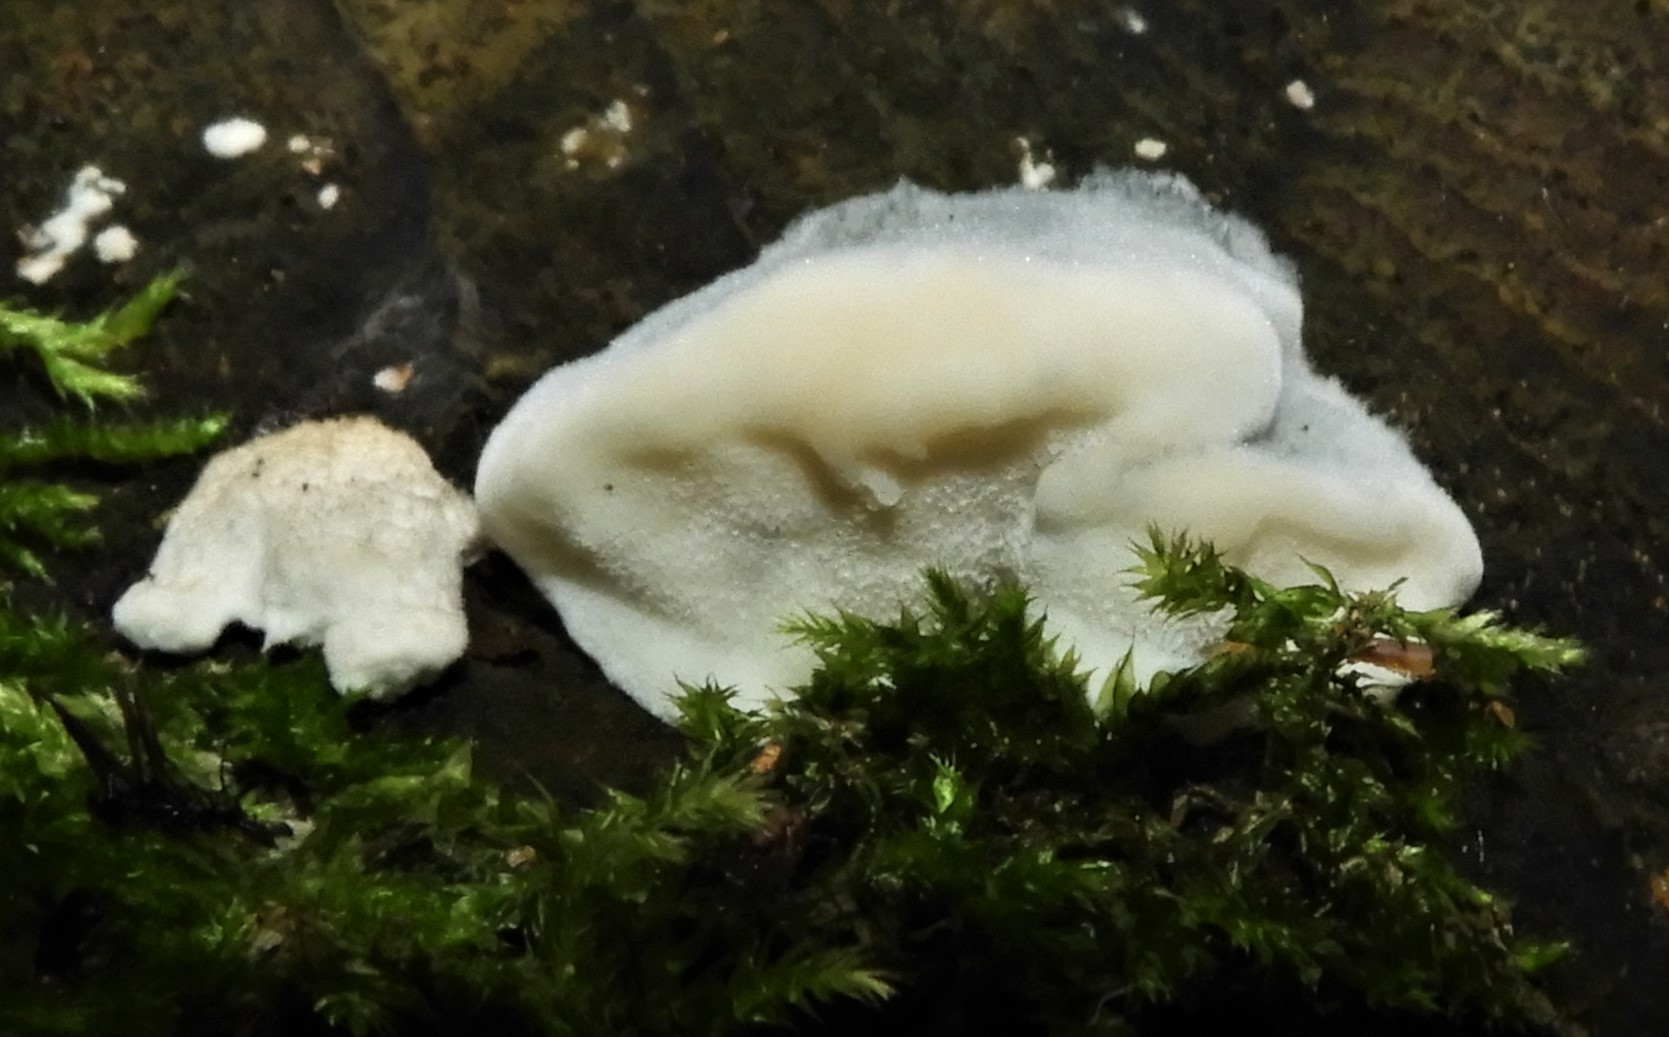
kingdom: Fungi
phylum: Basidiomycota
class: Agaricomycetes
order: Polyporales
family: Polyporaceae
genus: Cyanosporus
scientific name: Cyanosporus alni
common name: blegblå kødporesvamp
